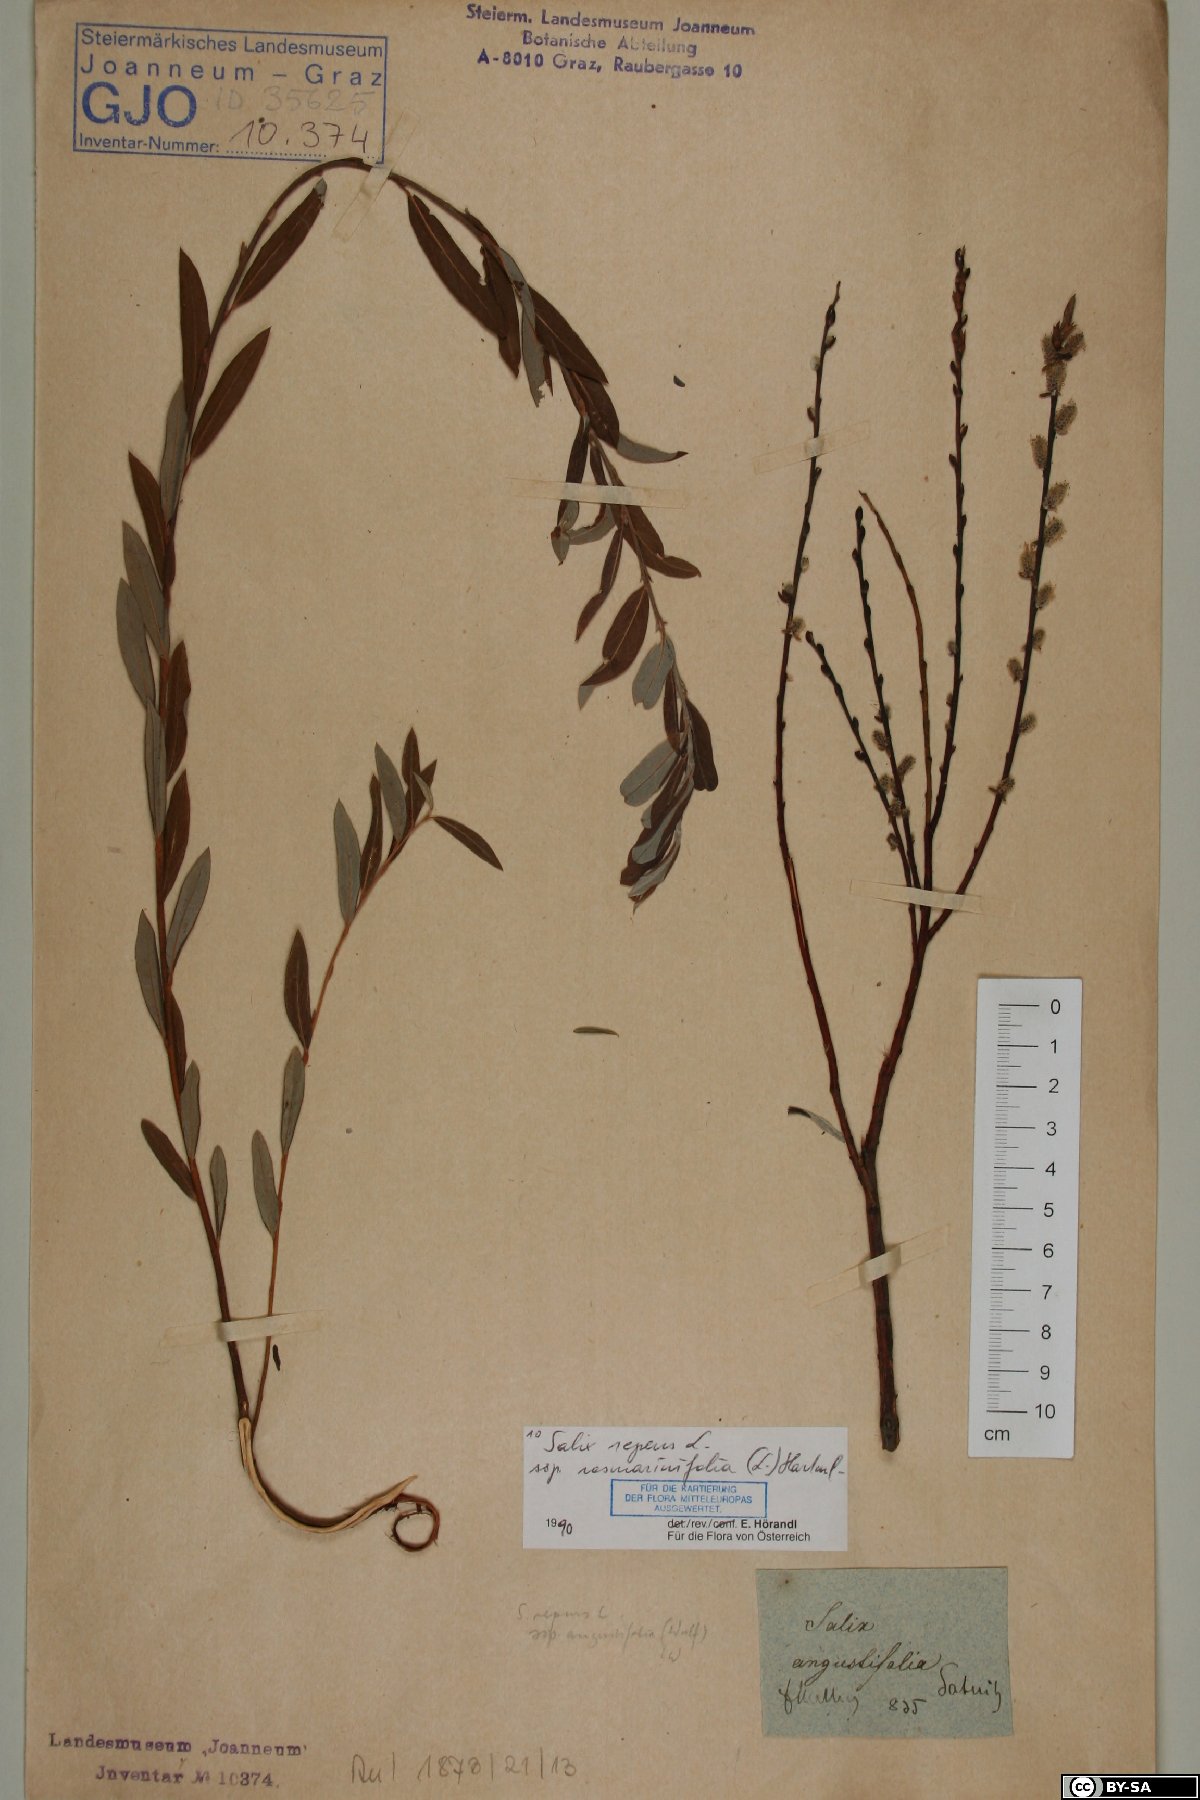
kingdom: Plantae
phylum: Tracheophyta
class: Magnoliopsida
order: Malpighiales
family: Salicaceae
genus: Salix
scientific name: Salix repens
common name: Creeping willow
